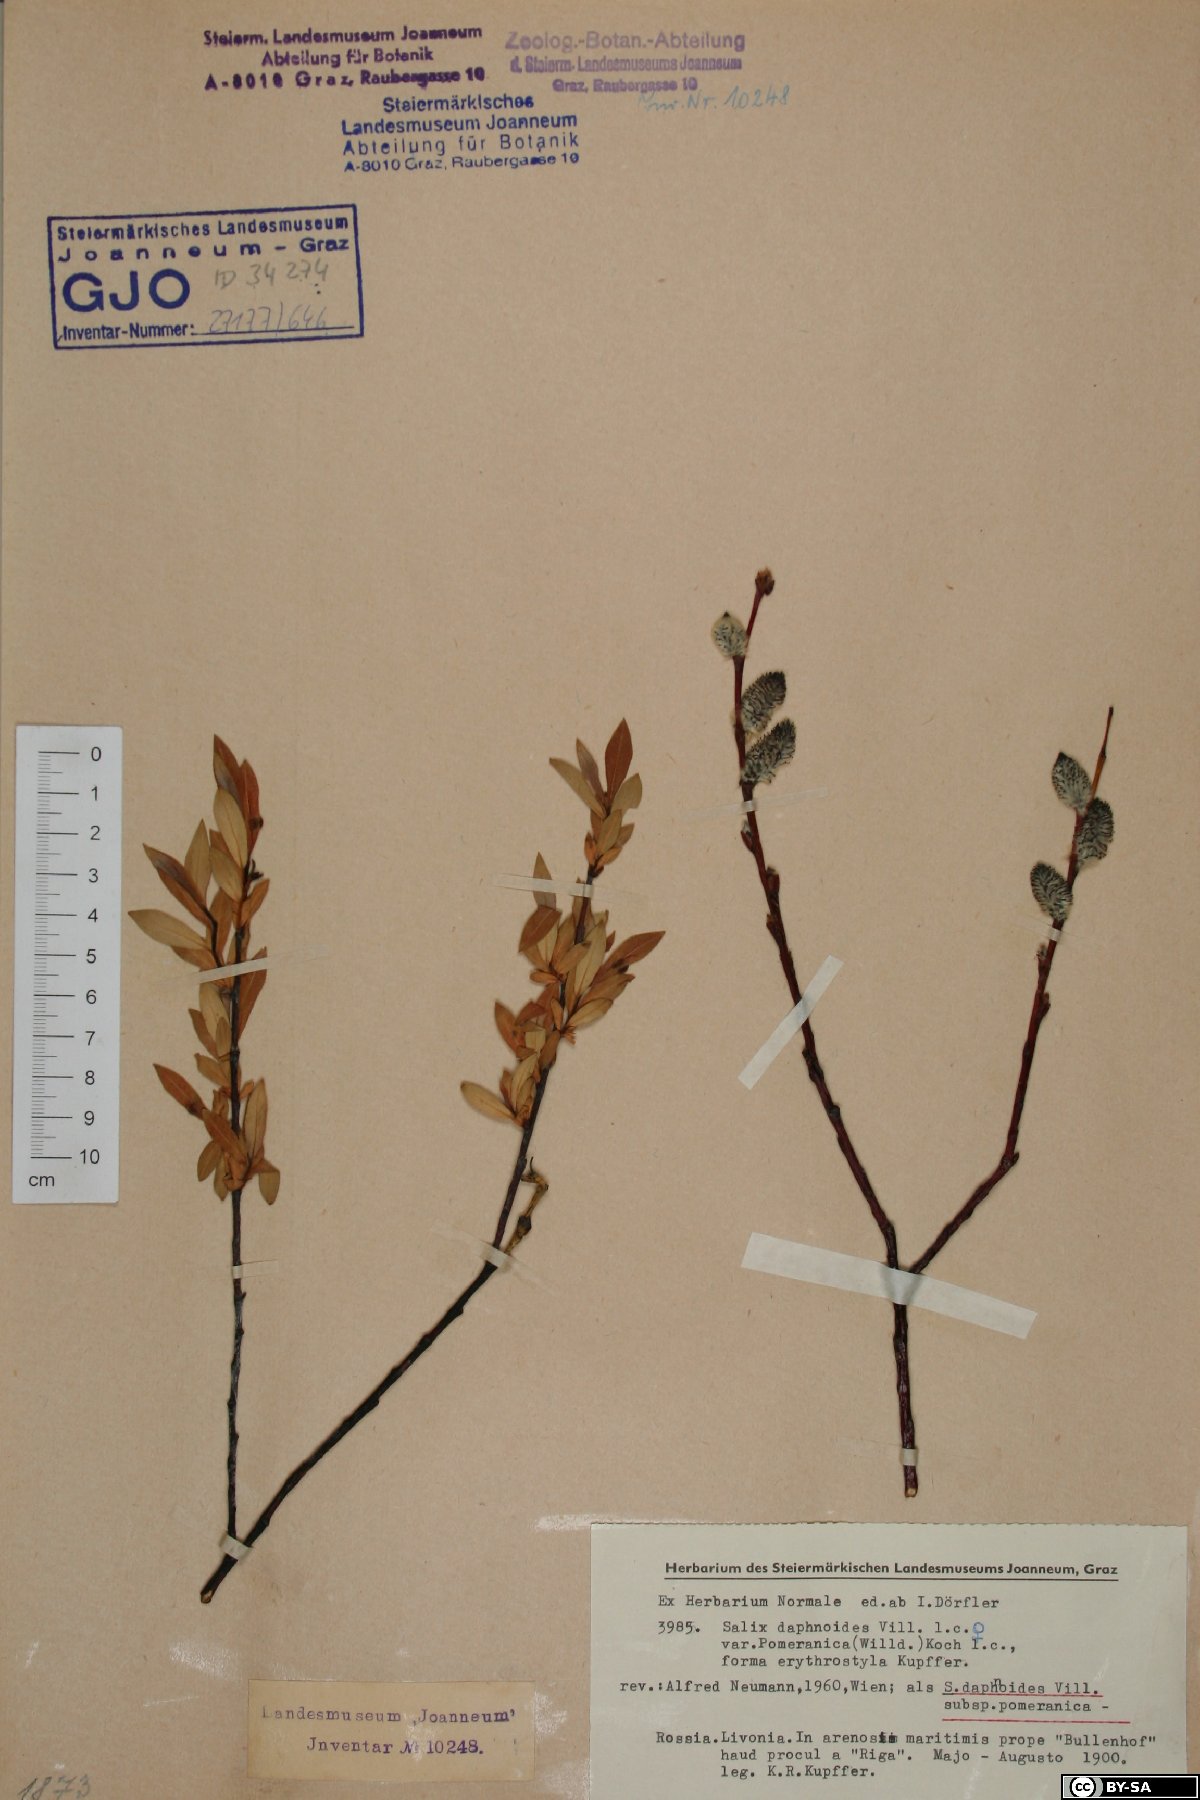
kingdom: Plantae
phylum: Tracheophyta
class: Magnoliopsida
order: Malpighiales
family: Salicaceae
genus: Salix
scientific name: Salix daphnoides
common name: European violet-willow
